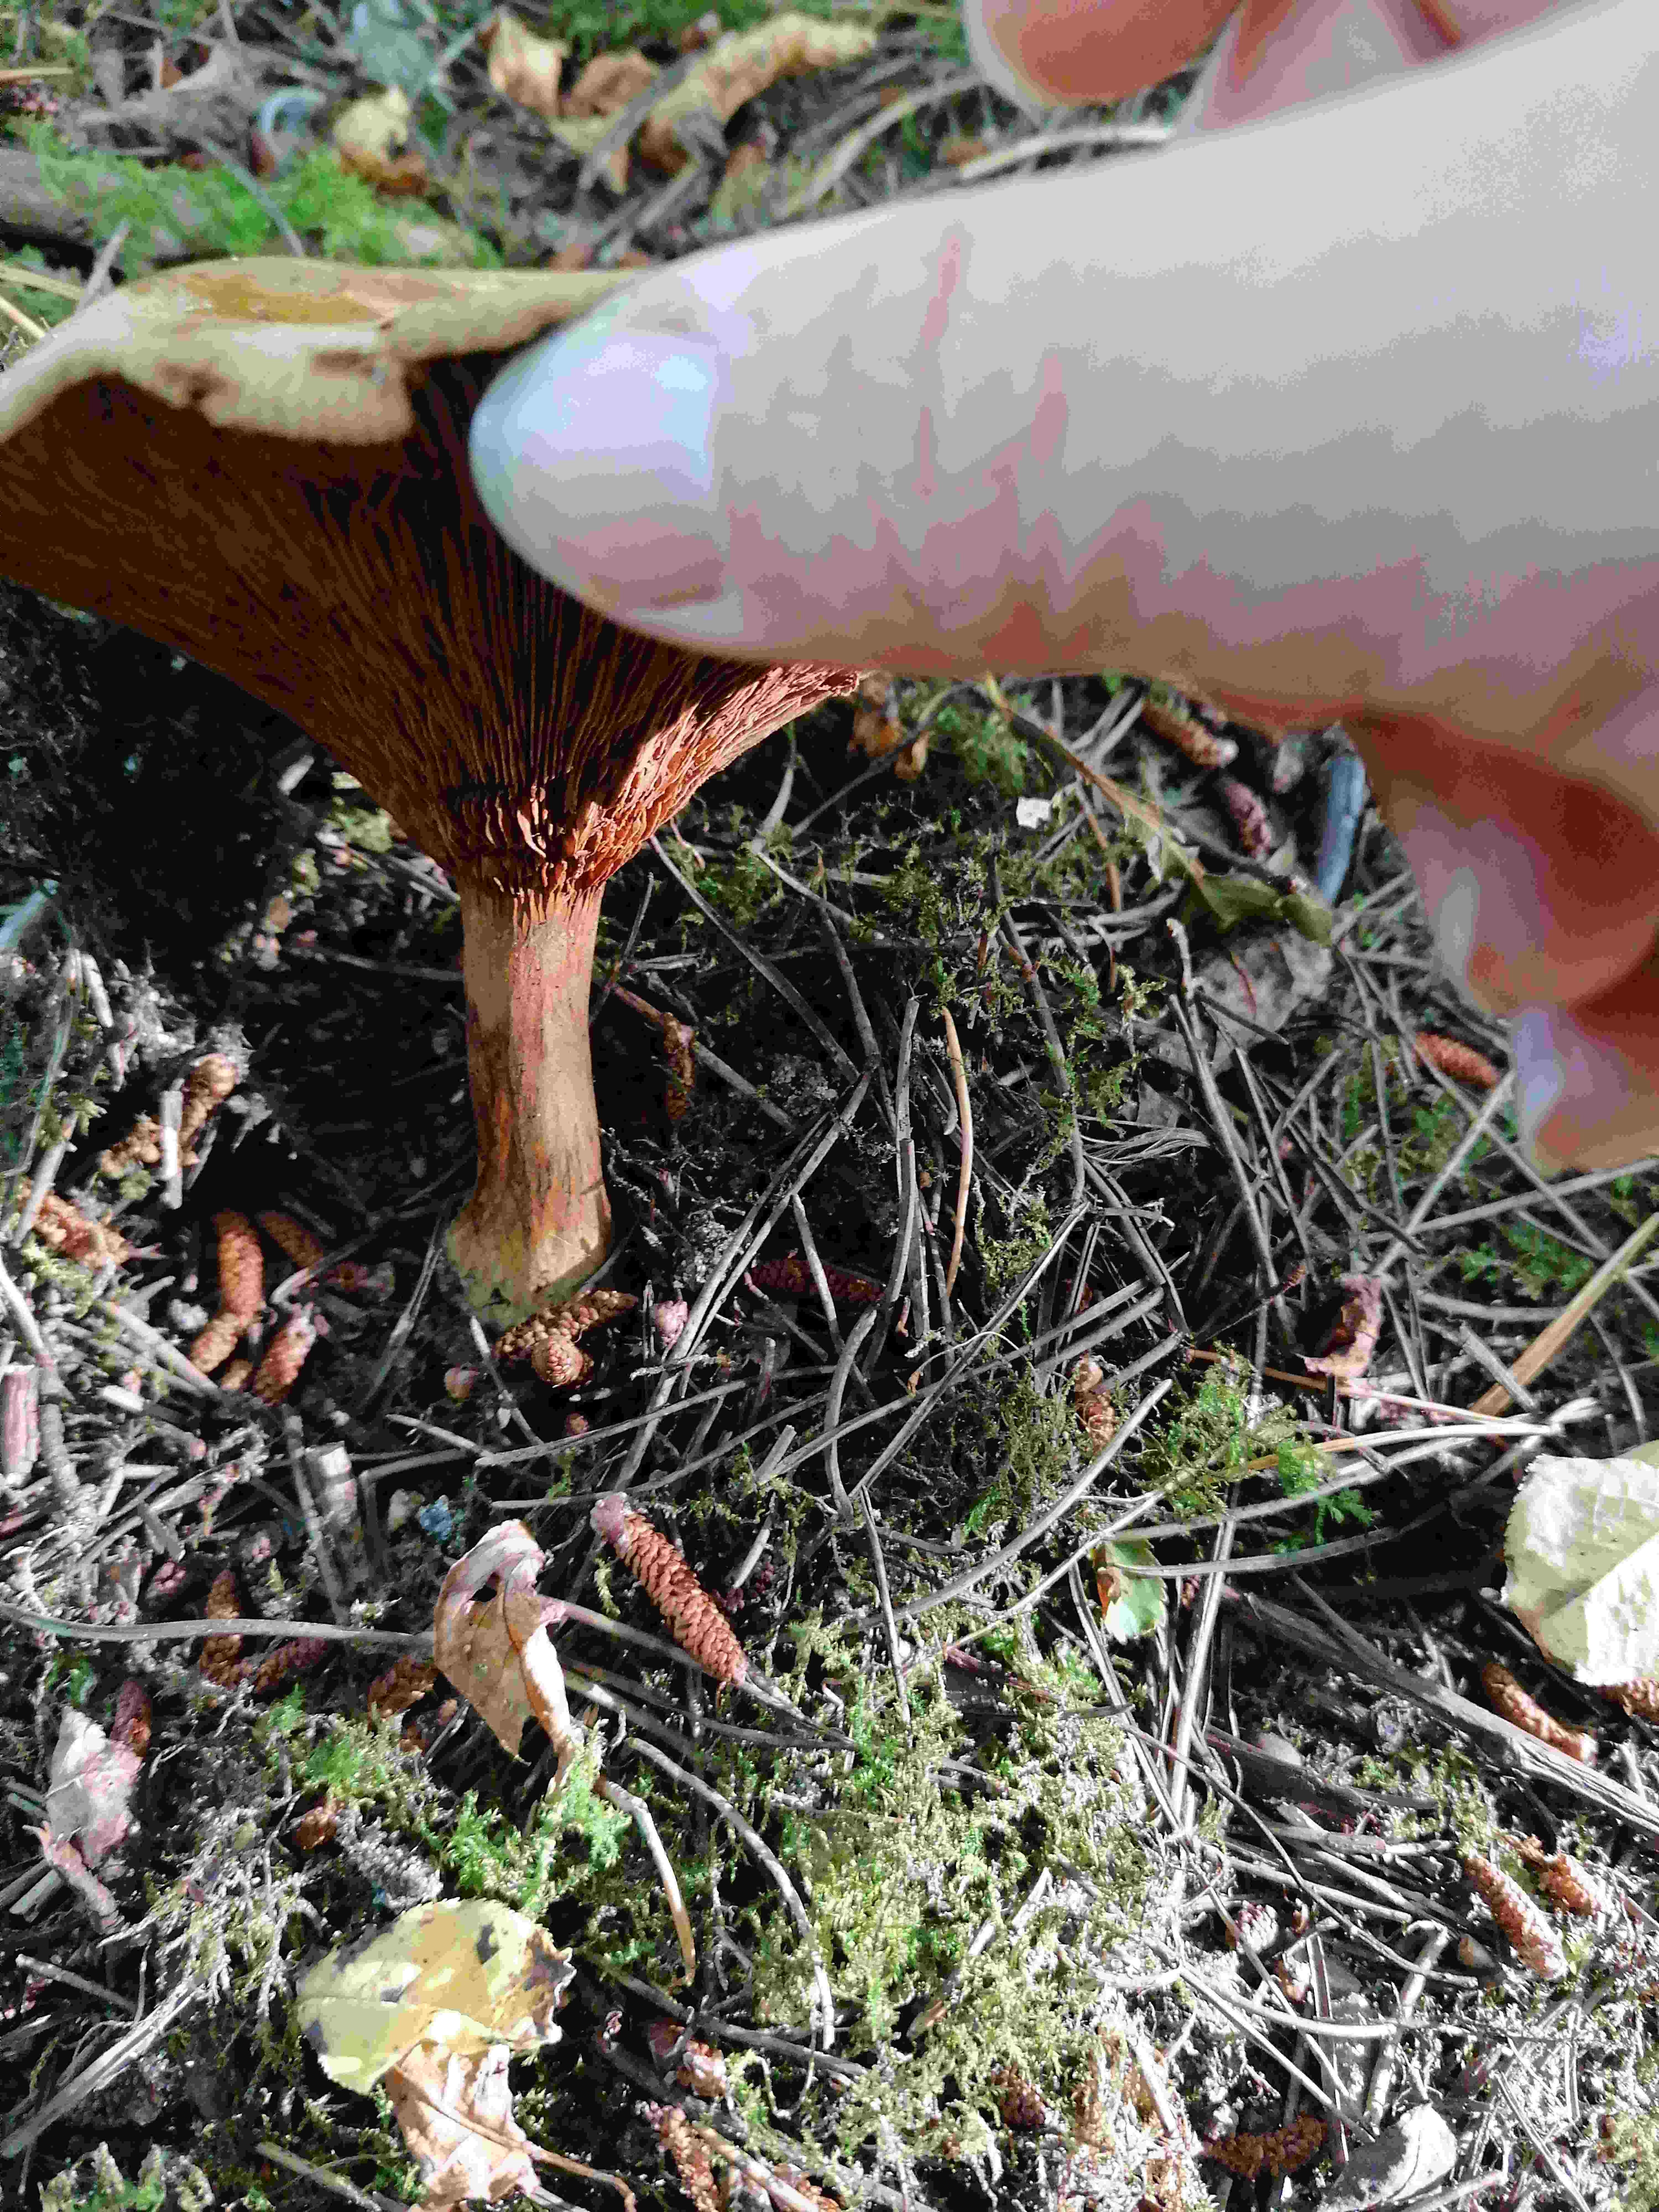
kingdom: Fungi
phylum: Basidiomycota
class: Agaricomycetes
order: Boletales
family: Paxillaceae
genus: Paxillus
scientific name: Paxillus involutus
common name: almindelig netbladhat
